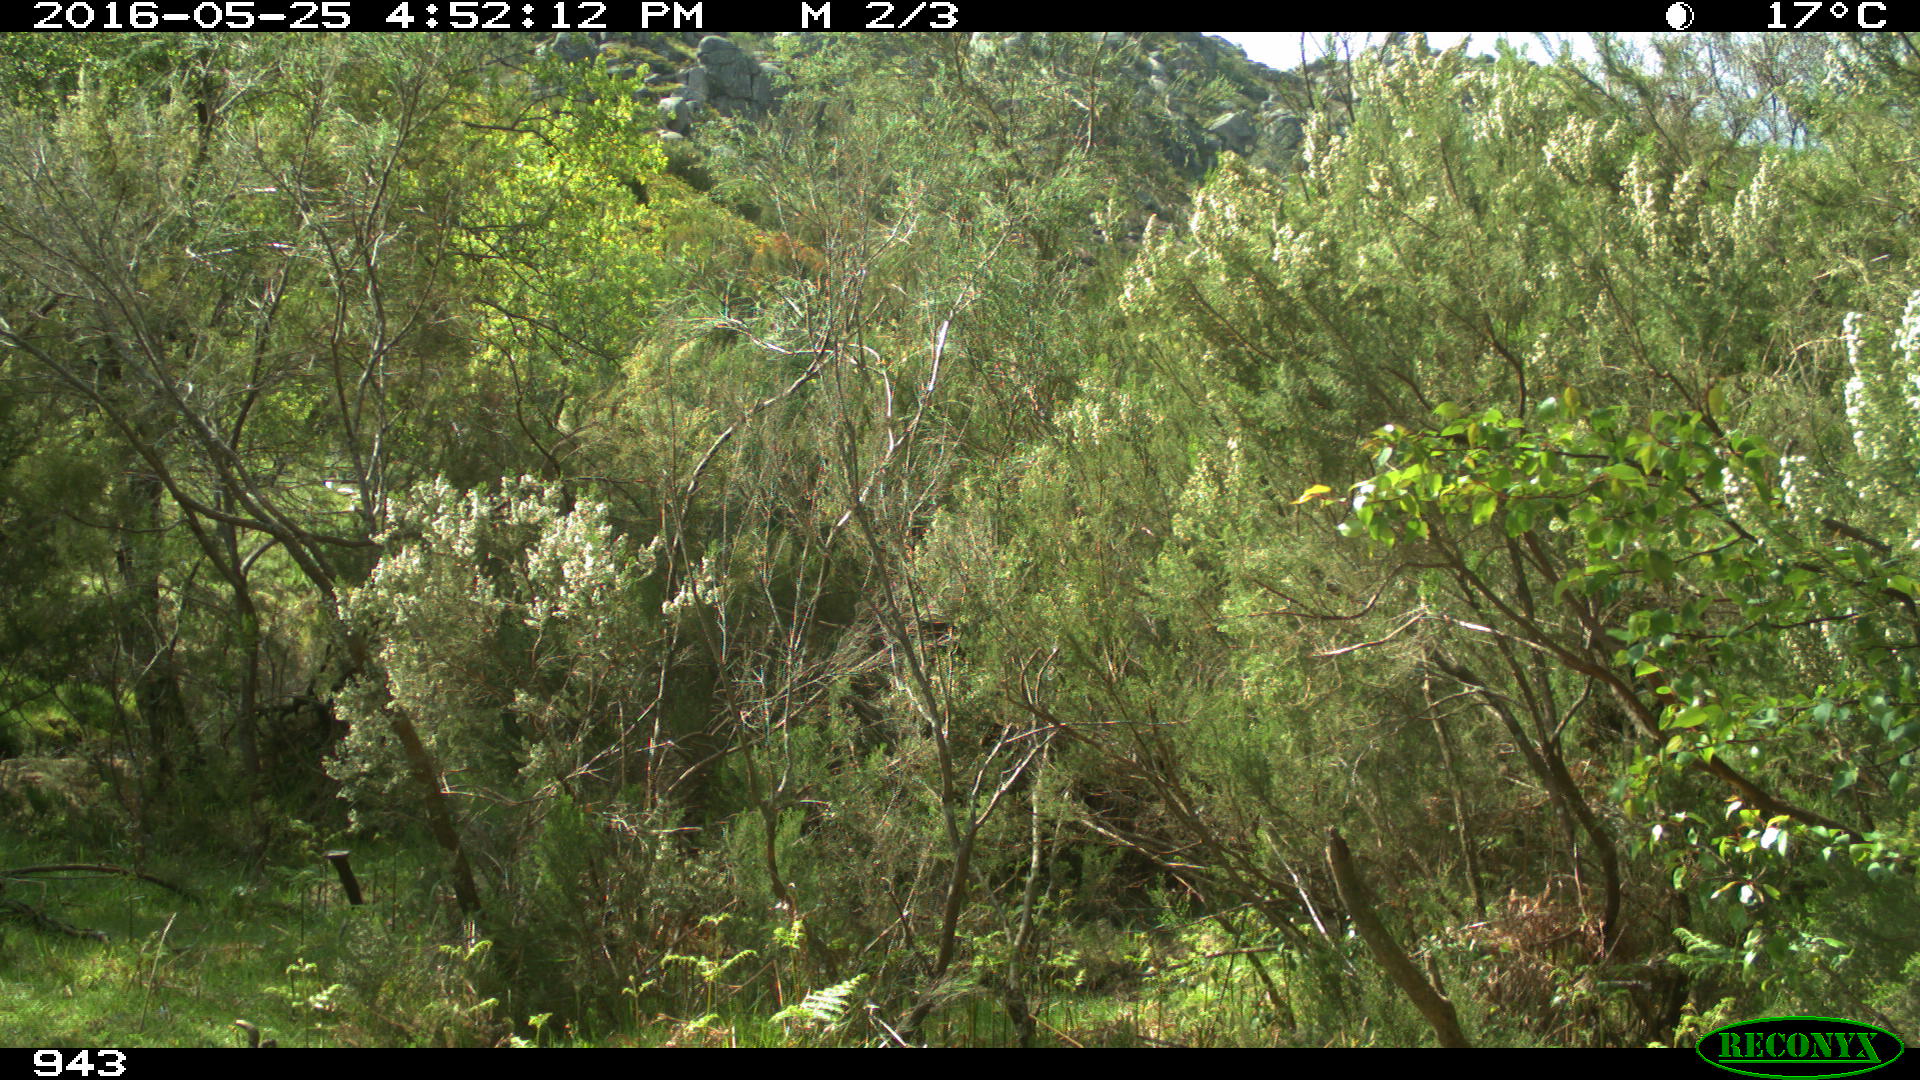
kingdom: Animalia
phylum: Chordata
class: Mammalia
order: Perissodactyla
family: Equidae
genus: Equus
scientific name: Equus caballus
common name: Horse
